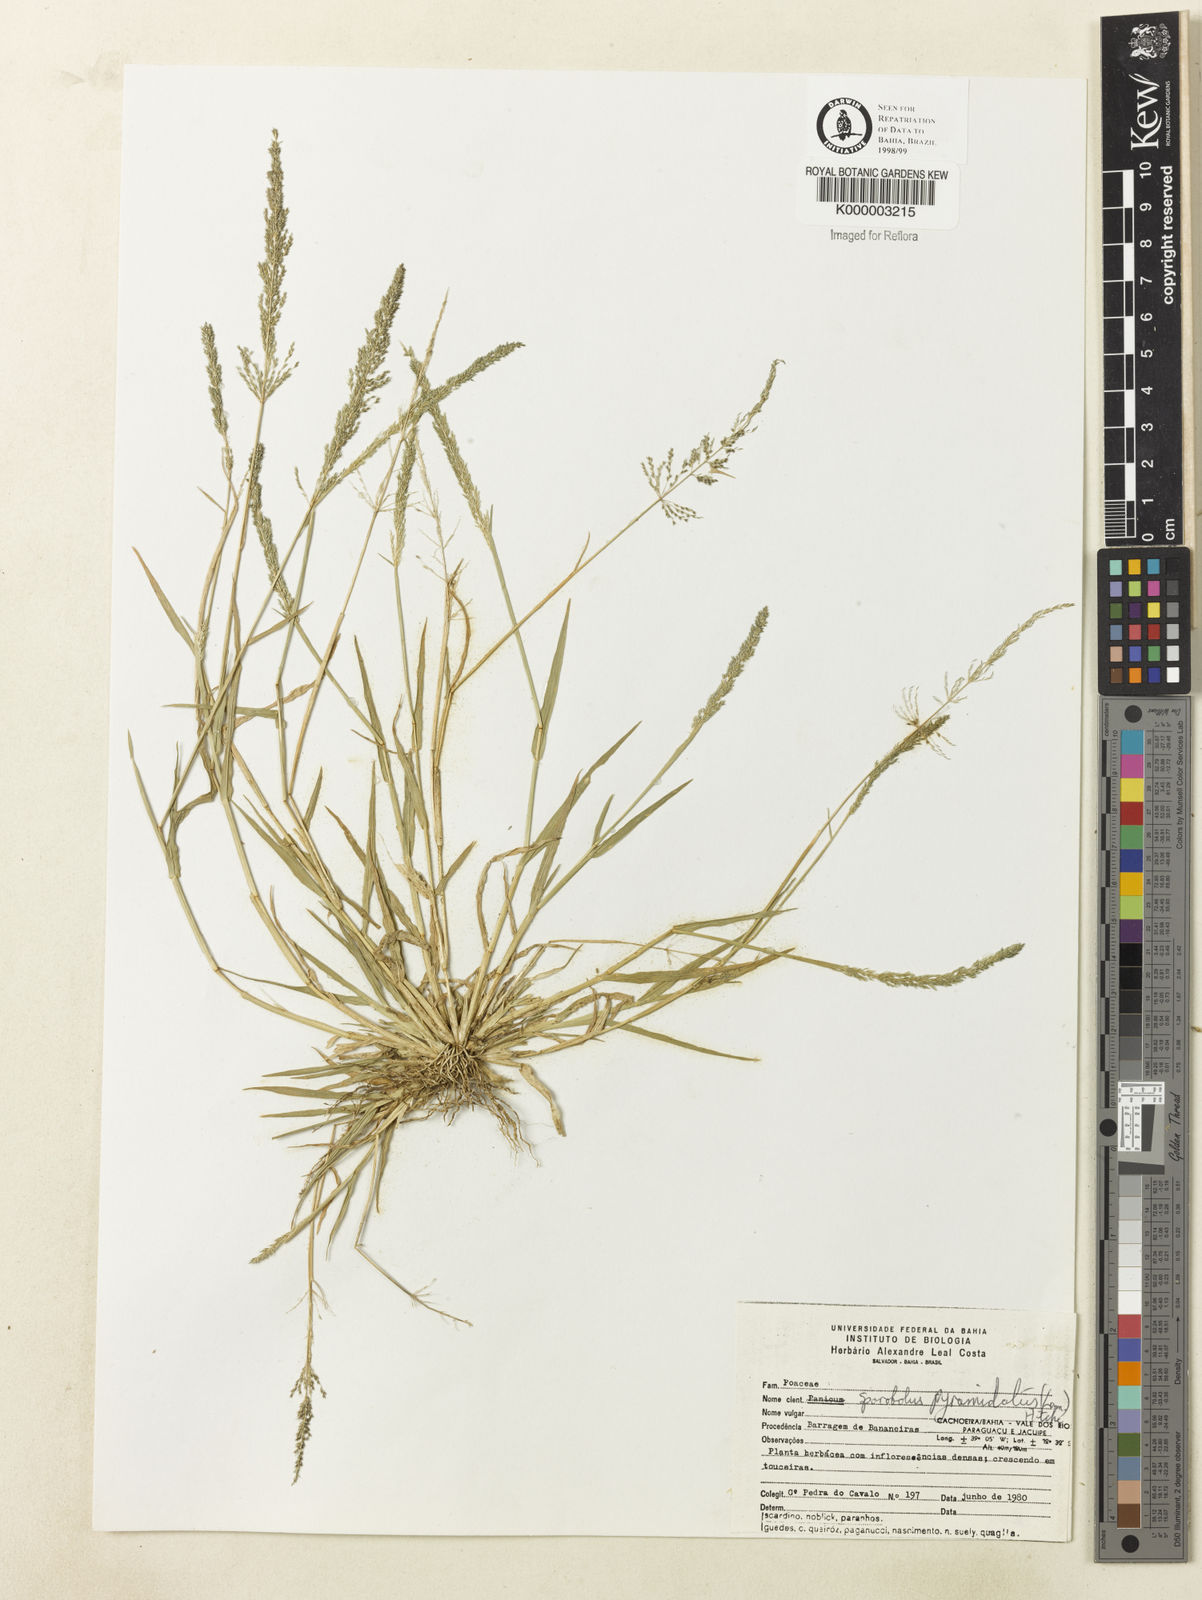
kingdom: Plantae
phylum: Tracheophyta
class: Liliopsida
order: Poales
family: Poaceae
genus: Sporobolus
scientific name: Sporobolus pyramidatus
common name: Whorled dropseed
